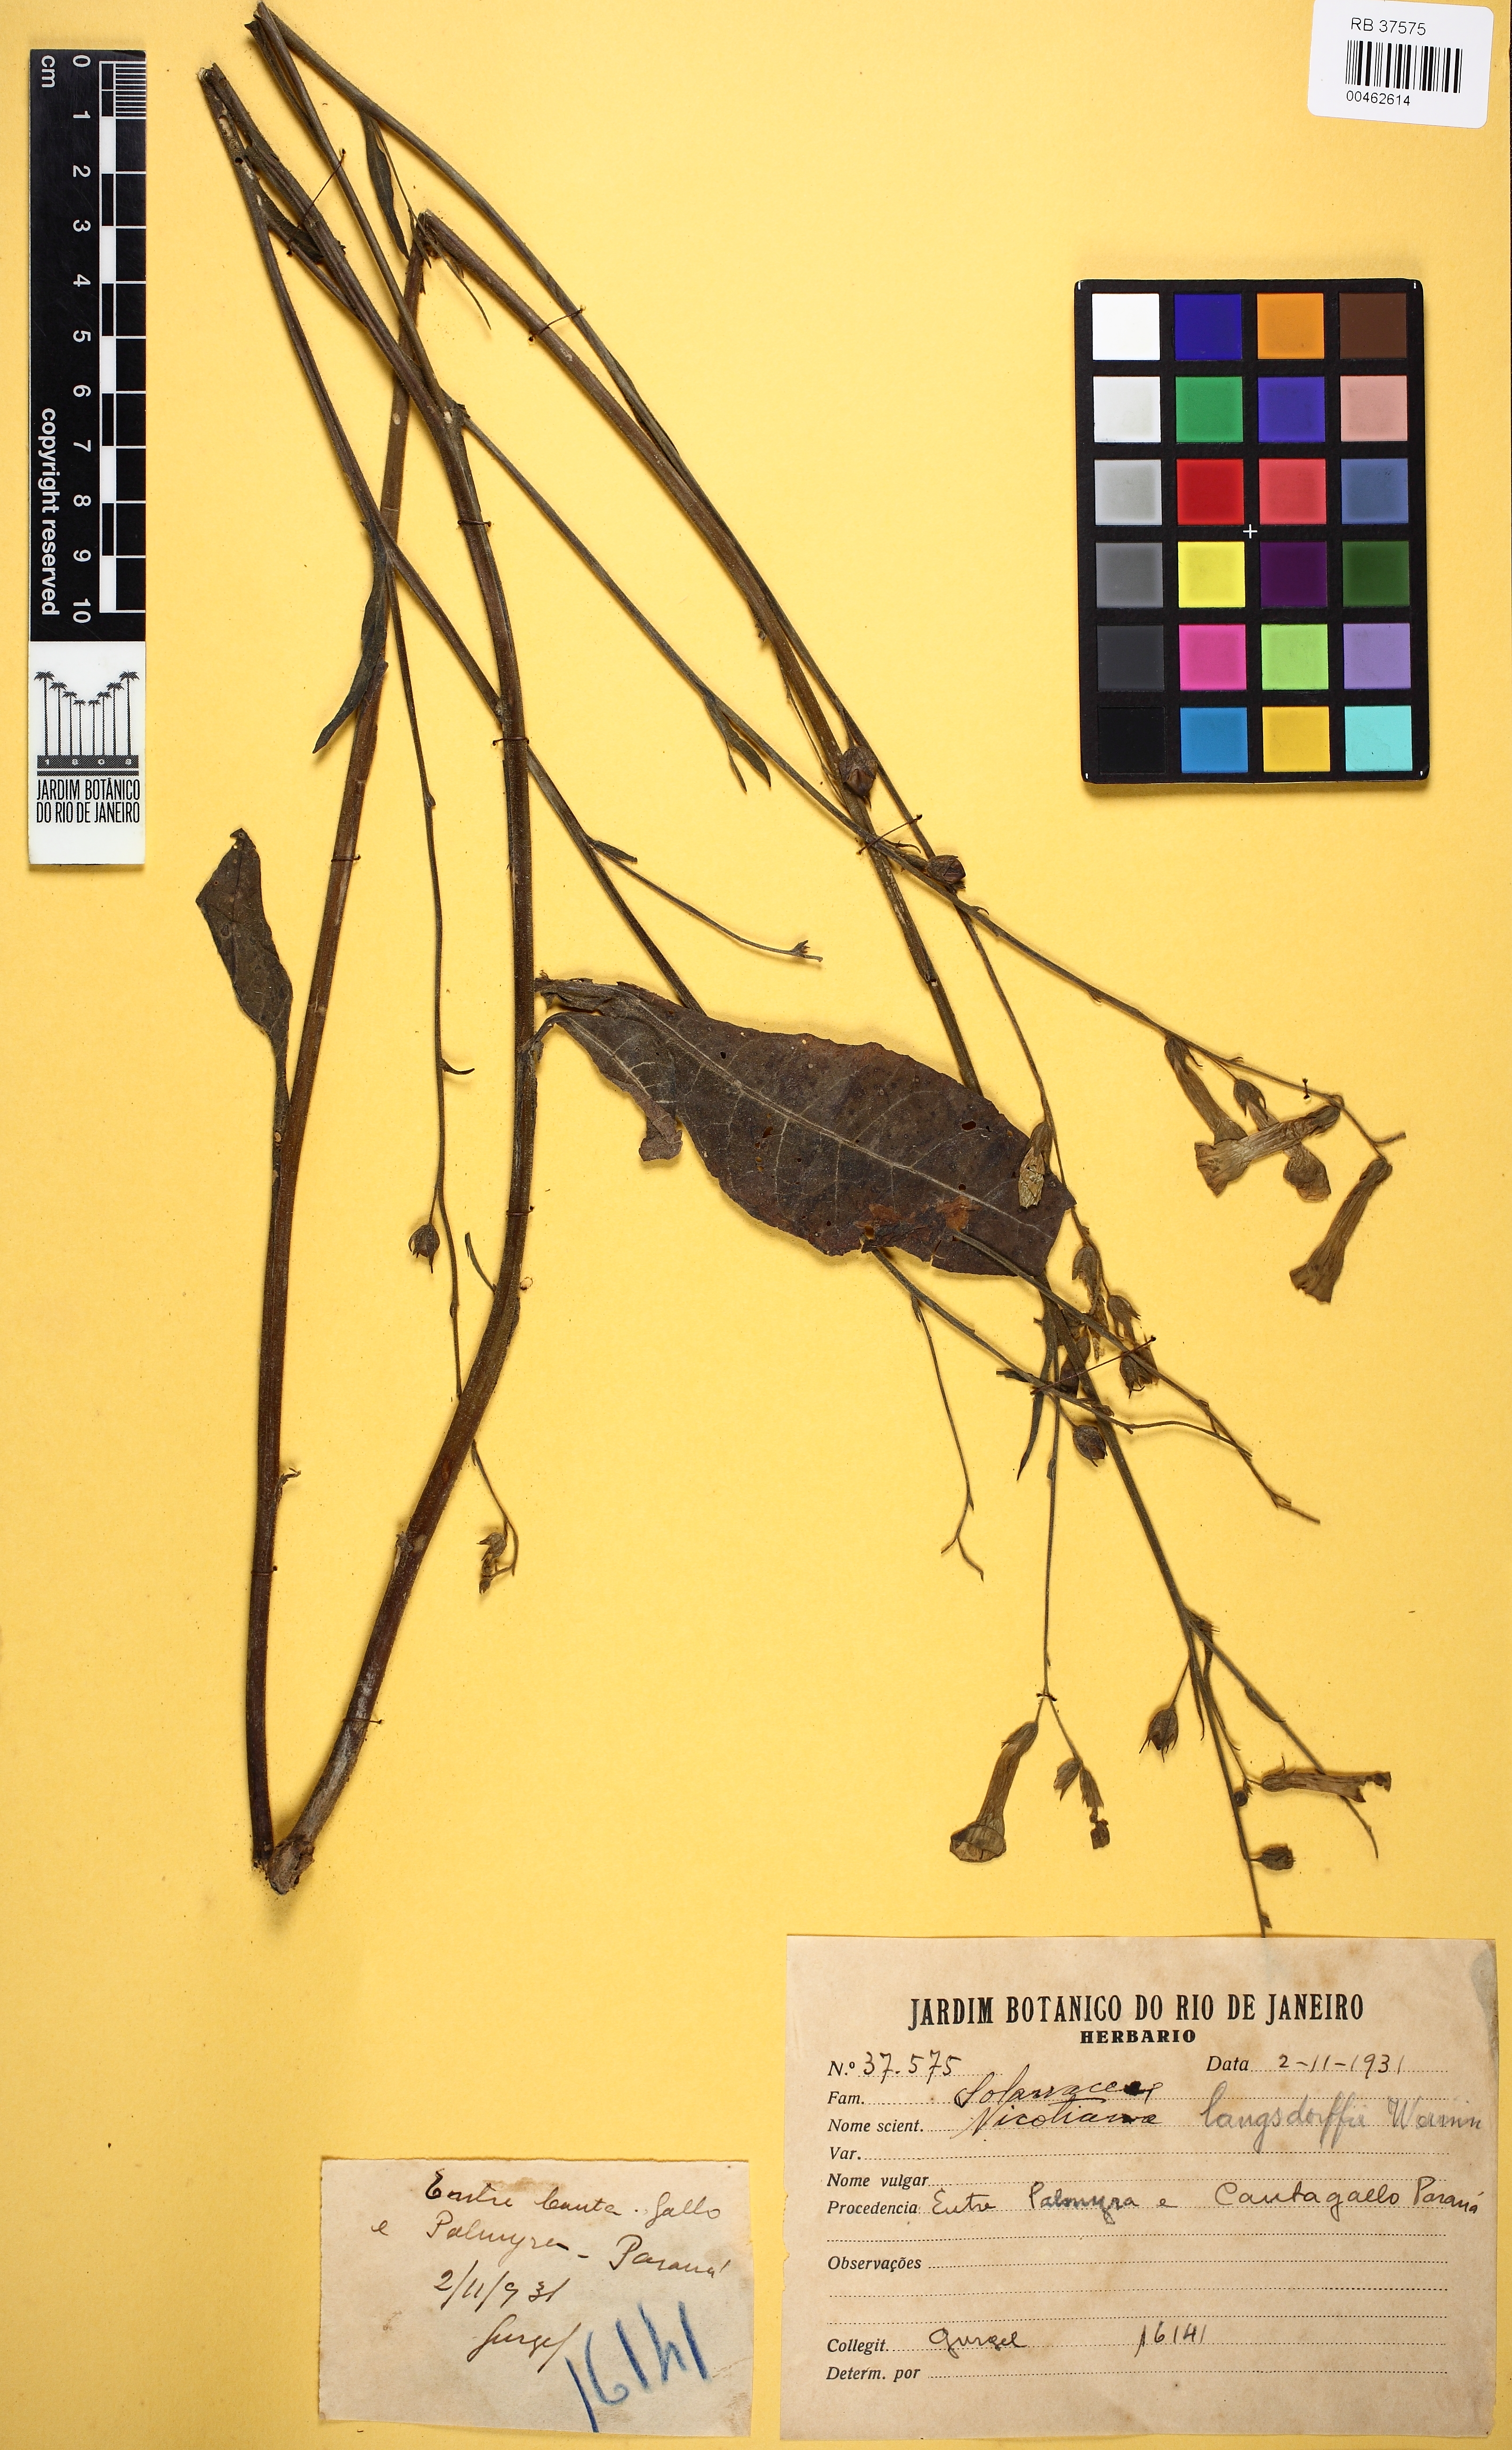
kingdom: Plantae
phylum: Tracheophyta
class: Magnoliopsida
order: Solanales
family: Solanaceae
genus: Nicotiana
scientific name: Nicotiana langsdorffii
